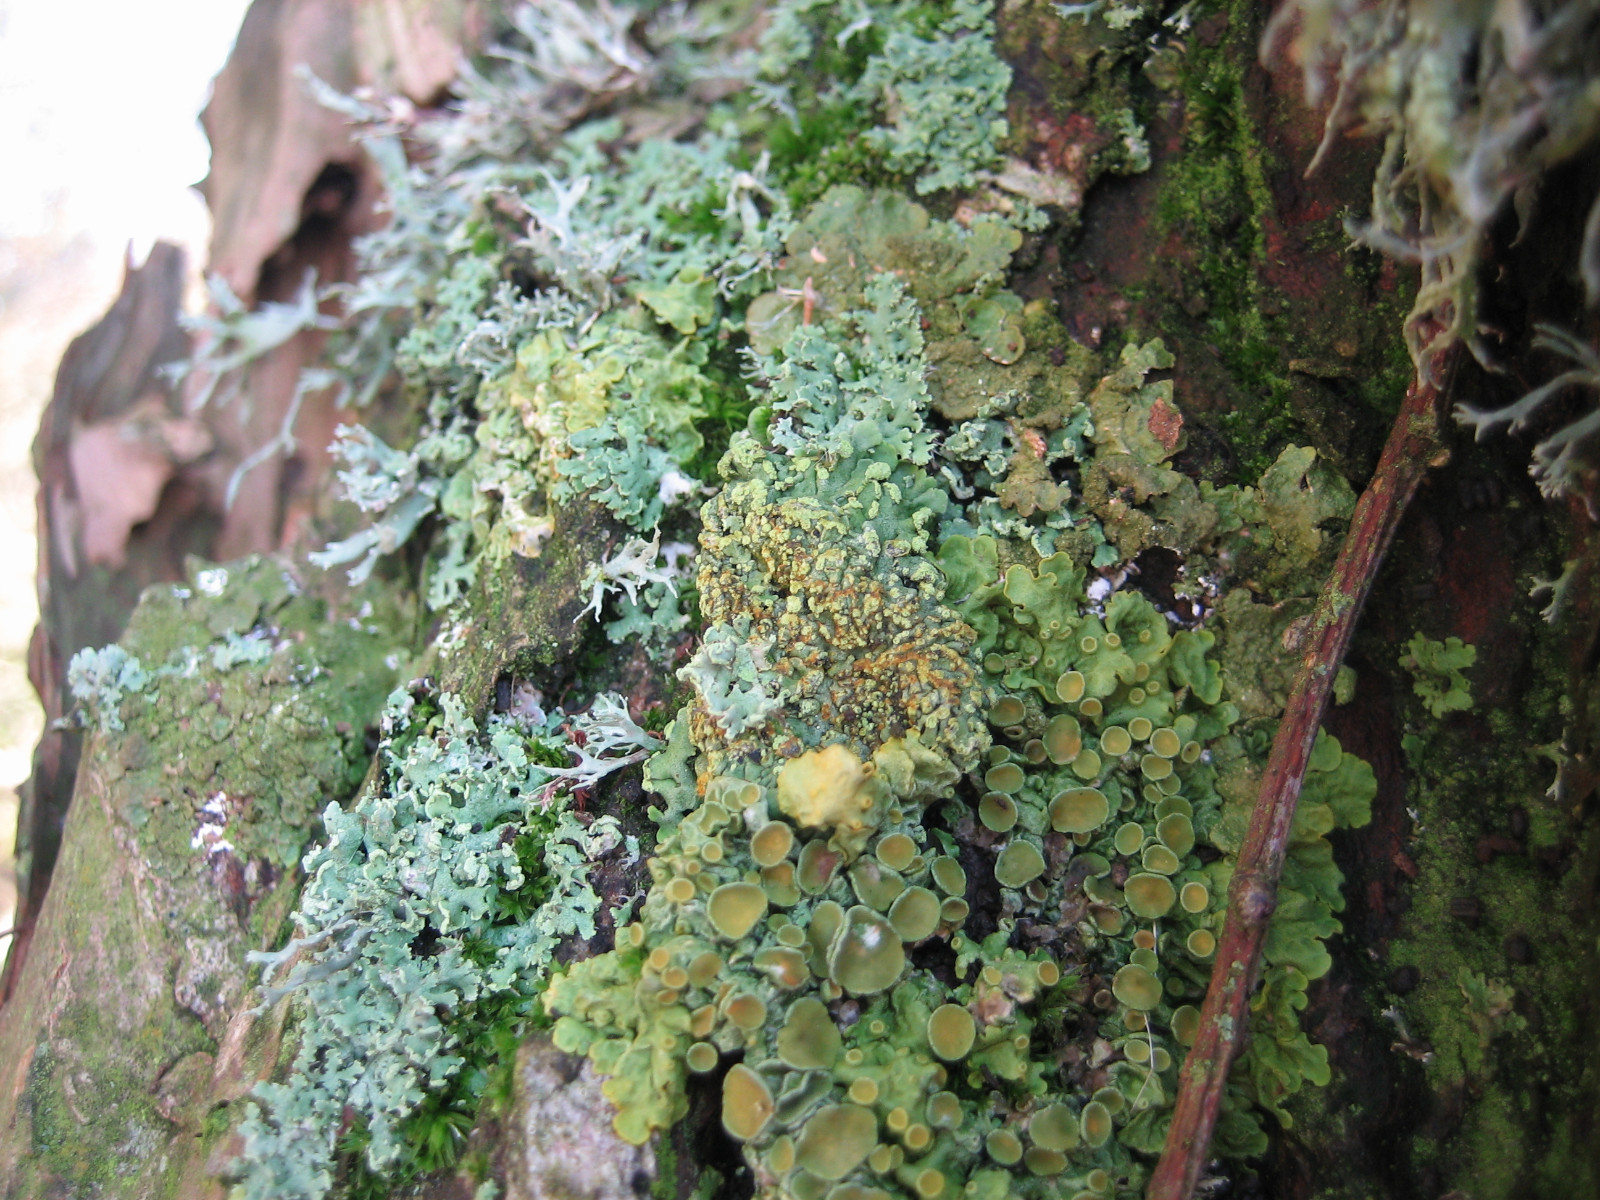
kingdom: Fungi
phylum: Ascomycota
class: Lecanoromycetes
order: Caliciales
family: Physciaceae
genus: Phaeophyscia
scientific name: Phaeophyscia orbicularis
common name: grågrøn rosetlav
